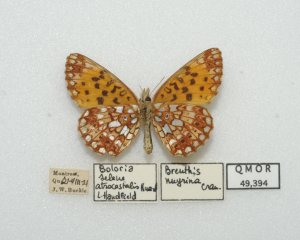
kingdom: Animalia
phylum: Arthropoda
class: Insecta
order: Lepidoptera
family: Nymphalidae
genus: Boloria
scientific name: Boloria selene
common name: Silver-bordered Fritillary
